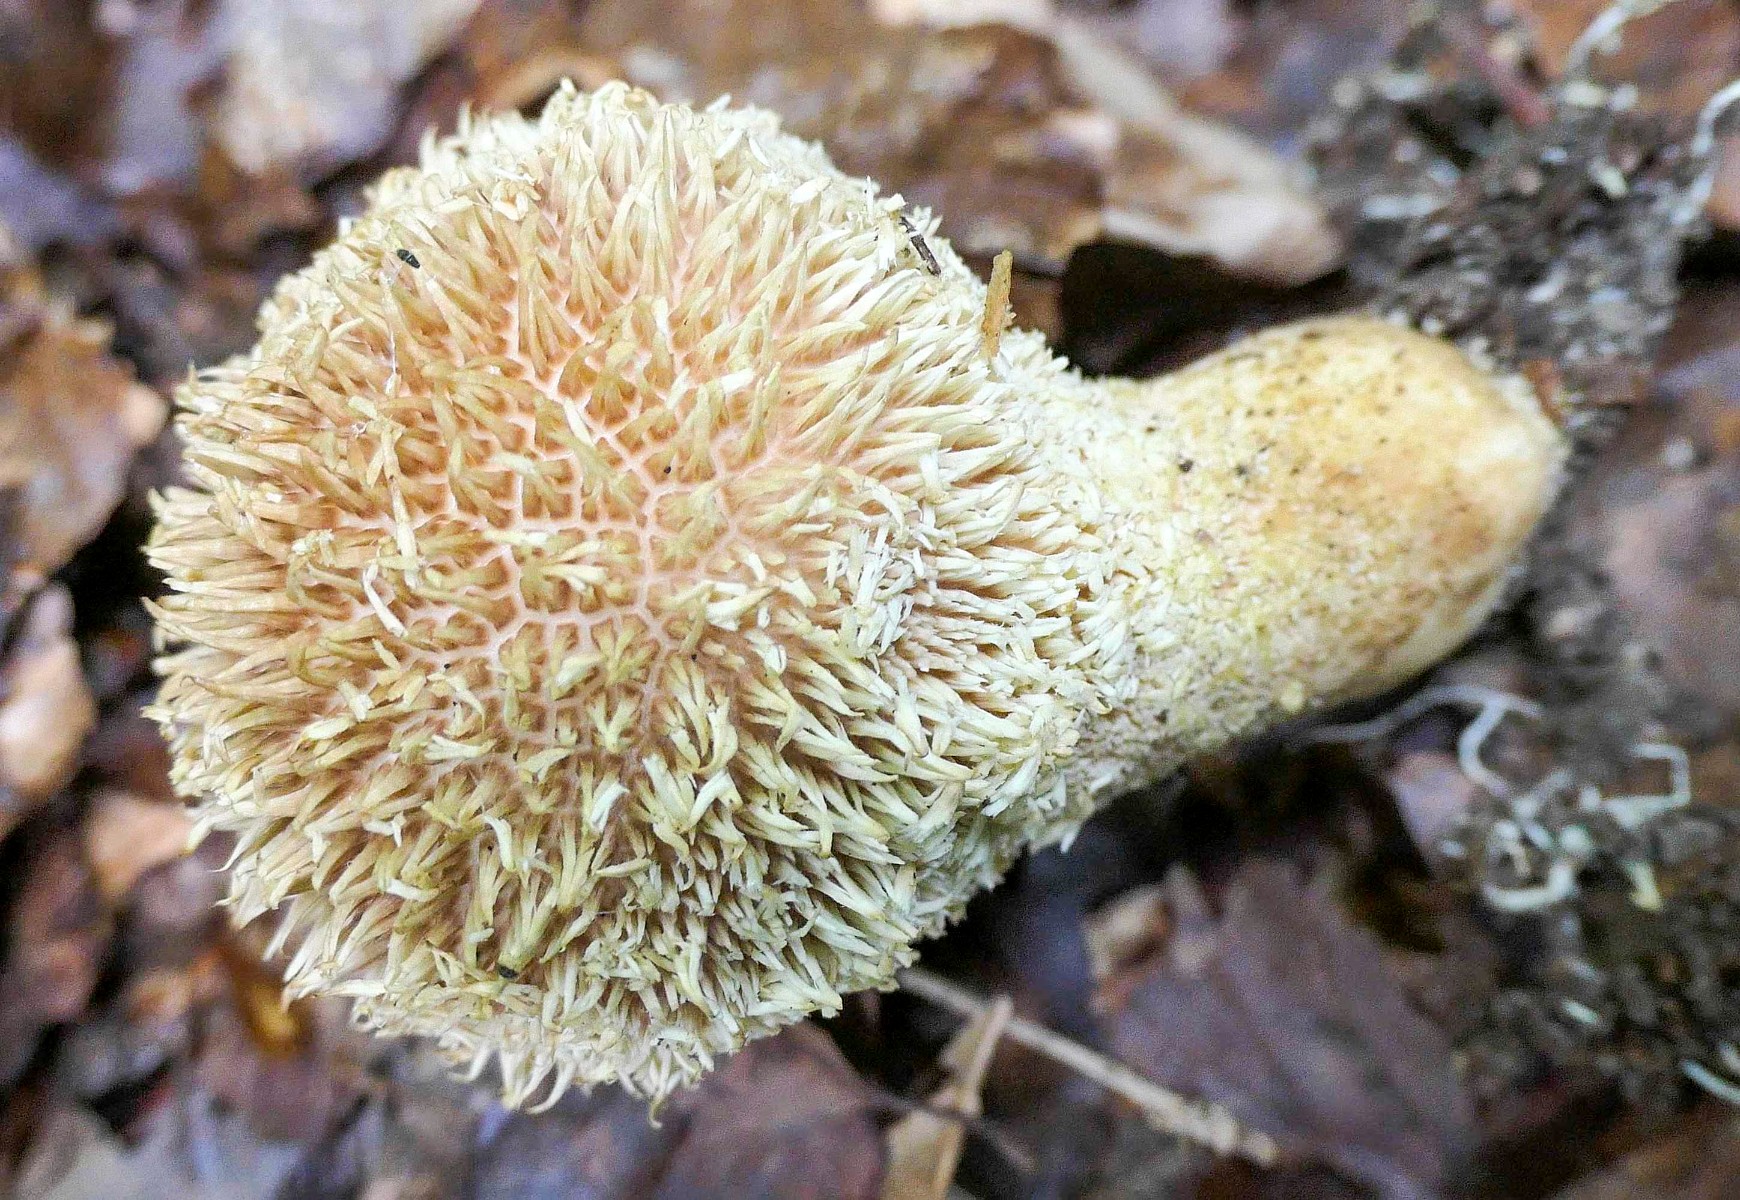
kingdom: Fungi
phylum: Basidiomycota
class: Agaricomycetes
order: Agaricales
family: Lycoperdaceae
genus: Lycoperdon
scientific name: Lycoperdon echinatum
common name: pindsvine-støvbold
